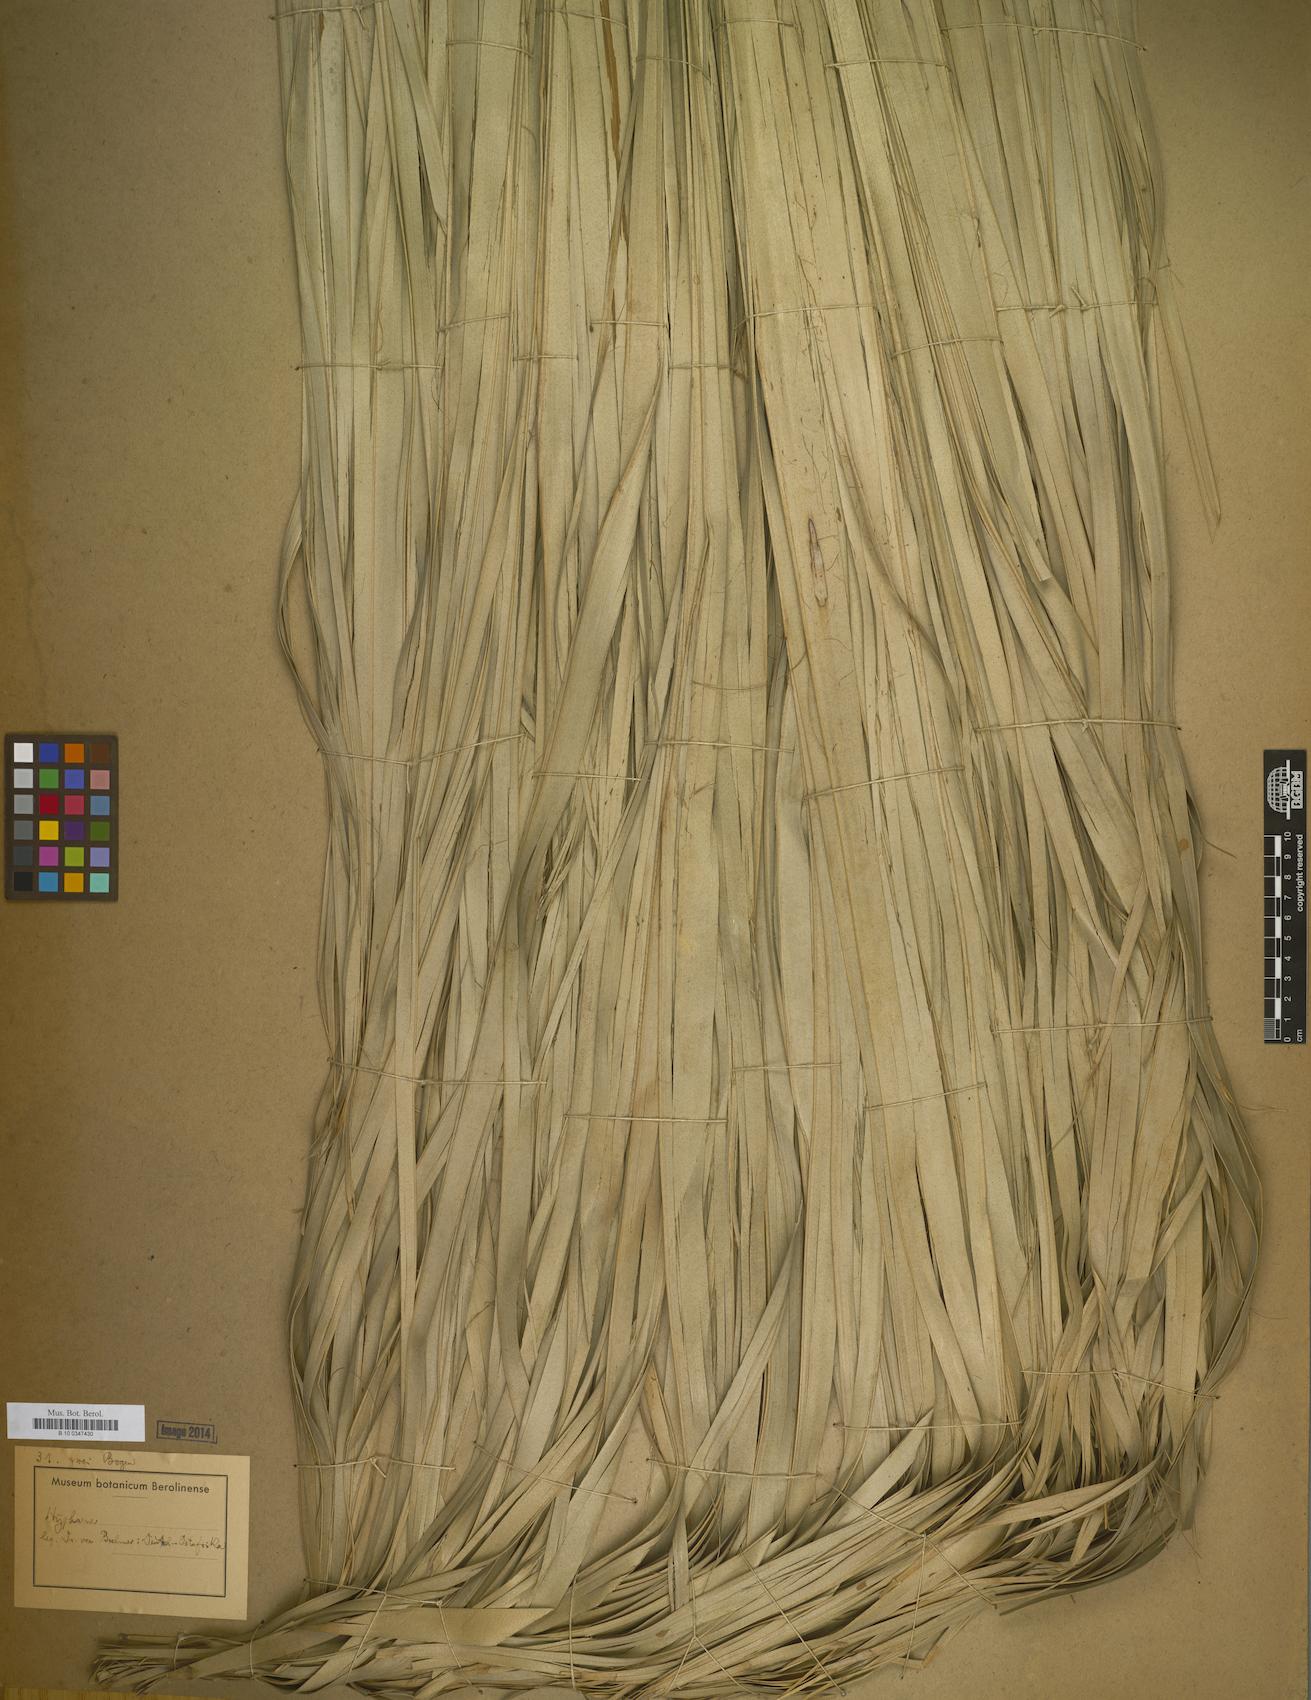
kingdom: Plantae
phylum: Tracheophyta
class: Liliopsida
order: Arecales
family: Arecaceae
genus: Hyphaene
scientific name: Hyphaene
